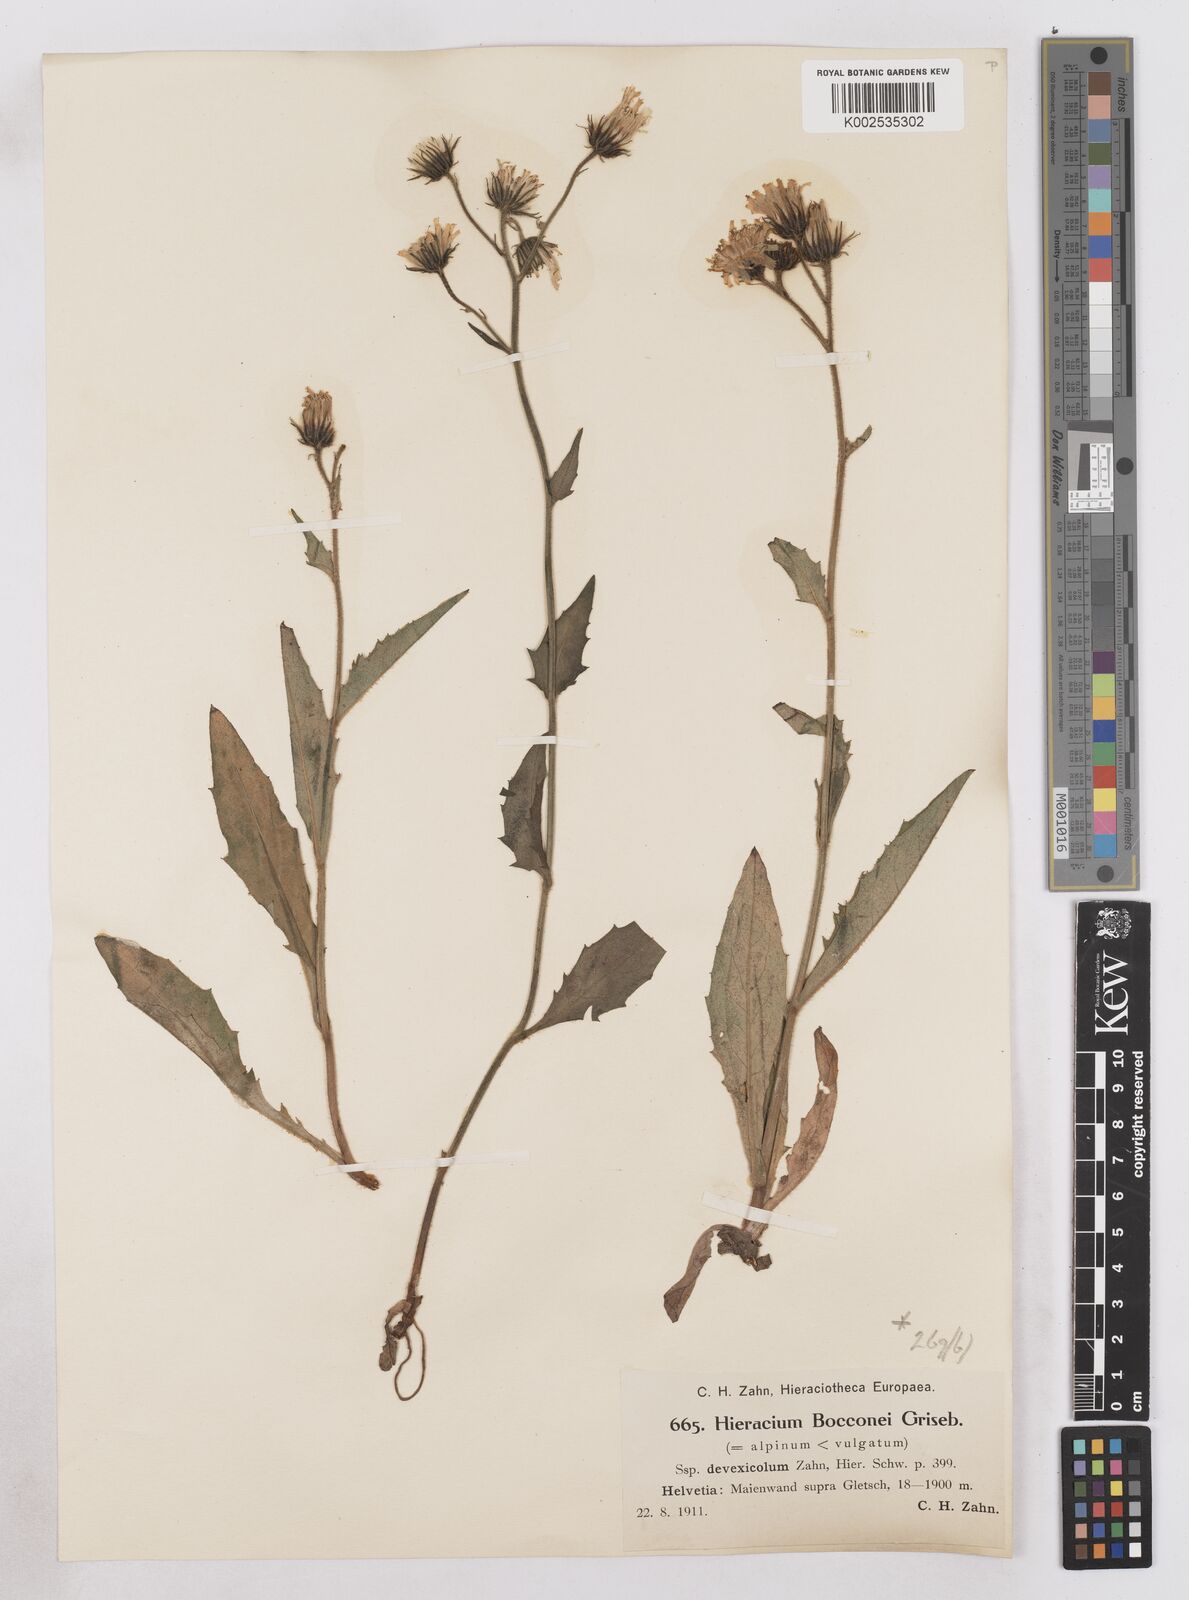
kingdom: Plantae
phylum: Tracheophyta
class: Magnoliopsida
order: Asterales
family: Asteraceae
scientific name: Asteraceae
